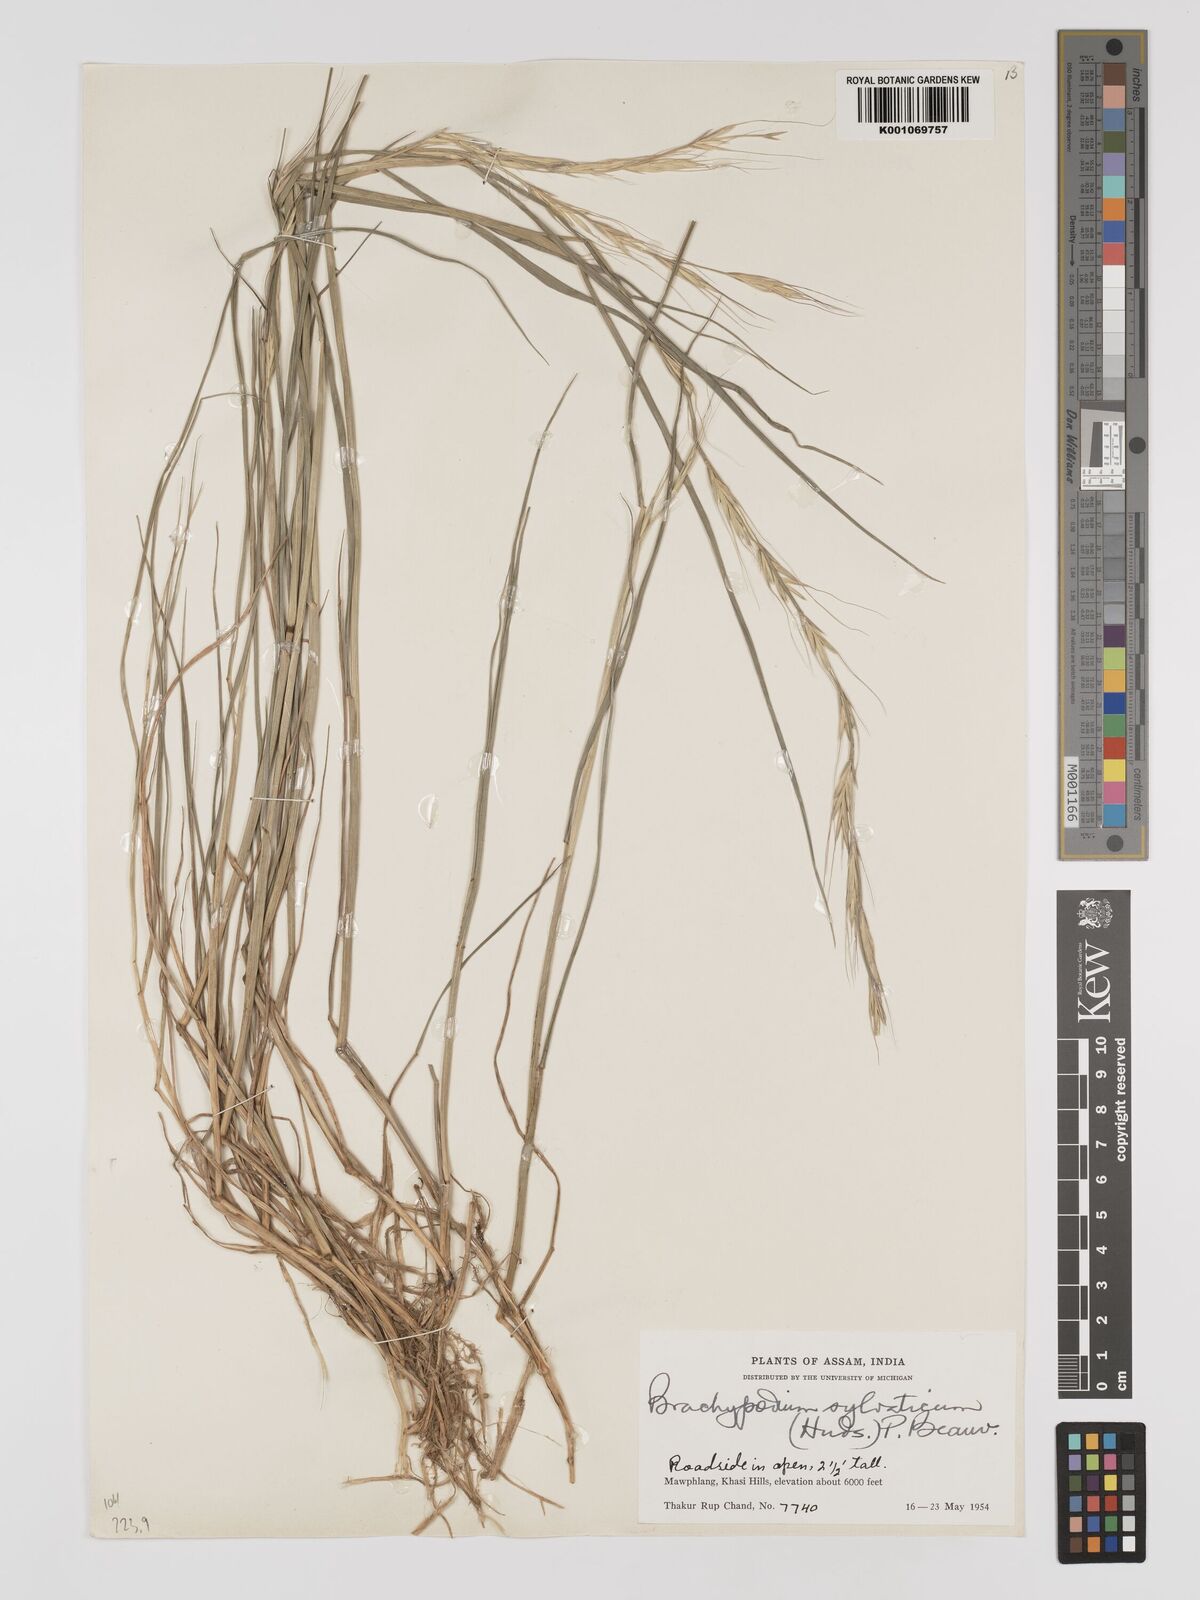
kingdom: Plantae
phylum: Tracheophyta
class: Liliopsida
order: Poales
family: Poaceae
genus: Brachypodium
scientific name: Brachypodium sylvaticum
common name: False-brome
